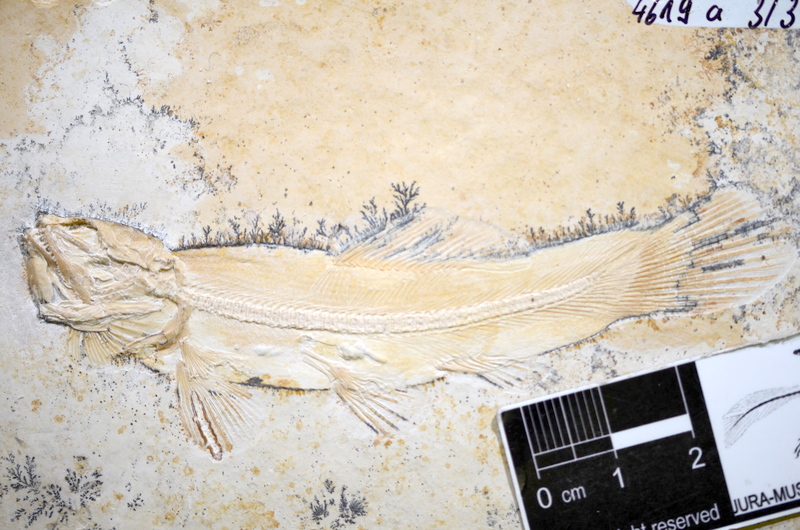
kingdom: Animalia
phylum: Chordata
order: Amiiformes
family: Amiidae
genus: Solnhofenamia
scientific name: Solnhofenamia elongata
